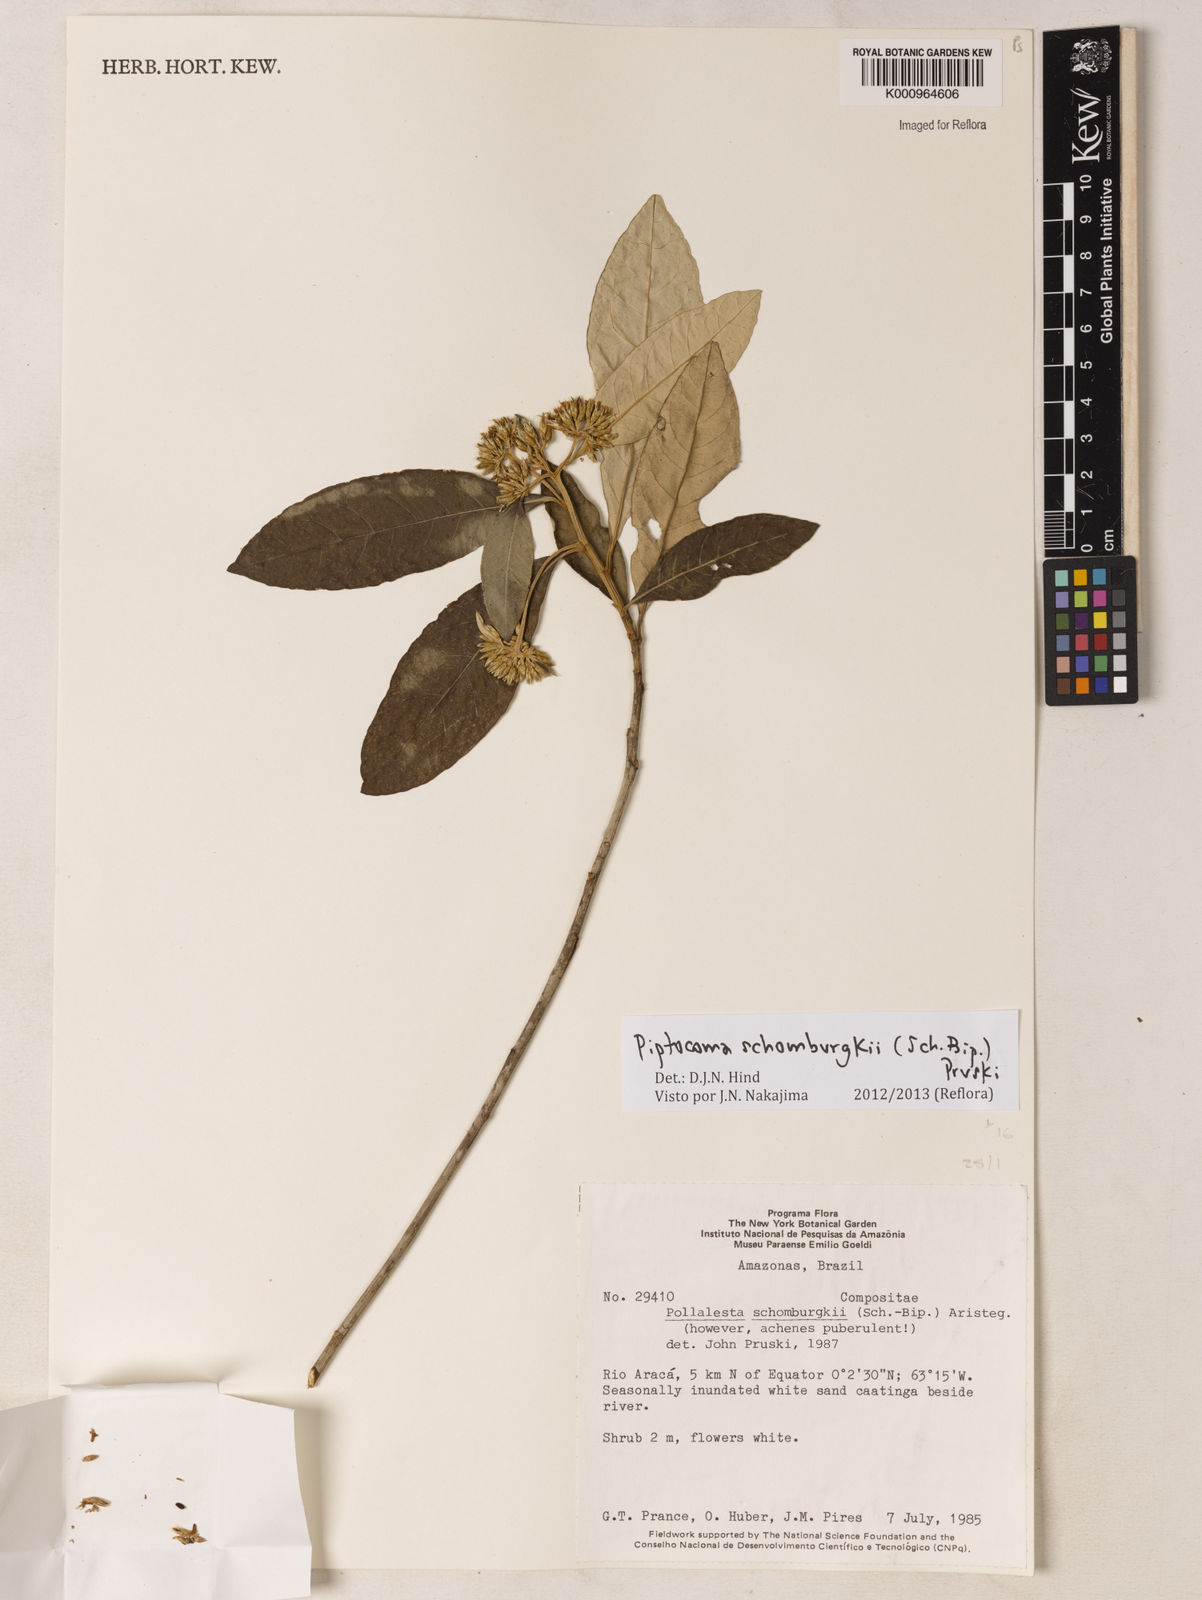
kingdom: Plantae
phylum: Tracheophyta
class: Magnoliopsida
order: Asterales
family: Asteraceae
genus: Piptocoma
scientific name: Piptocoma schomburgkii
